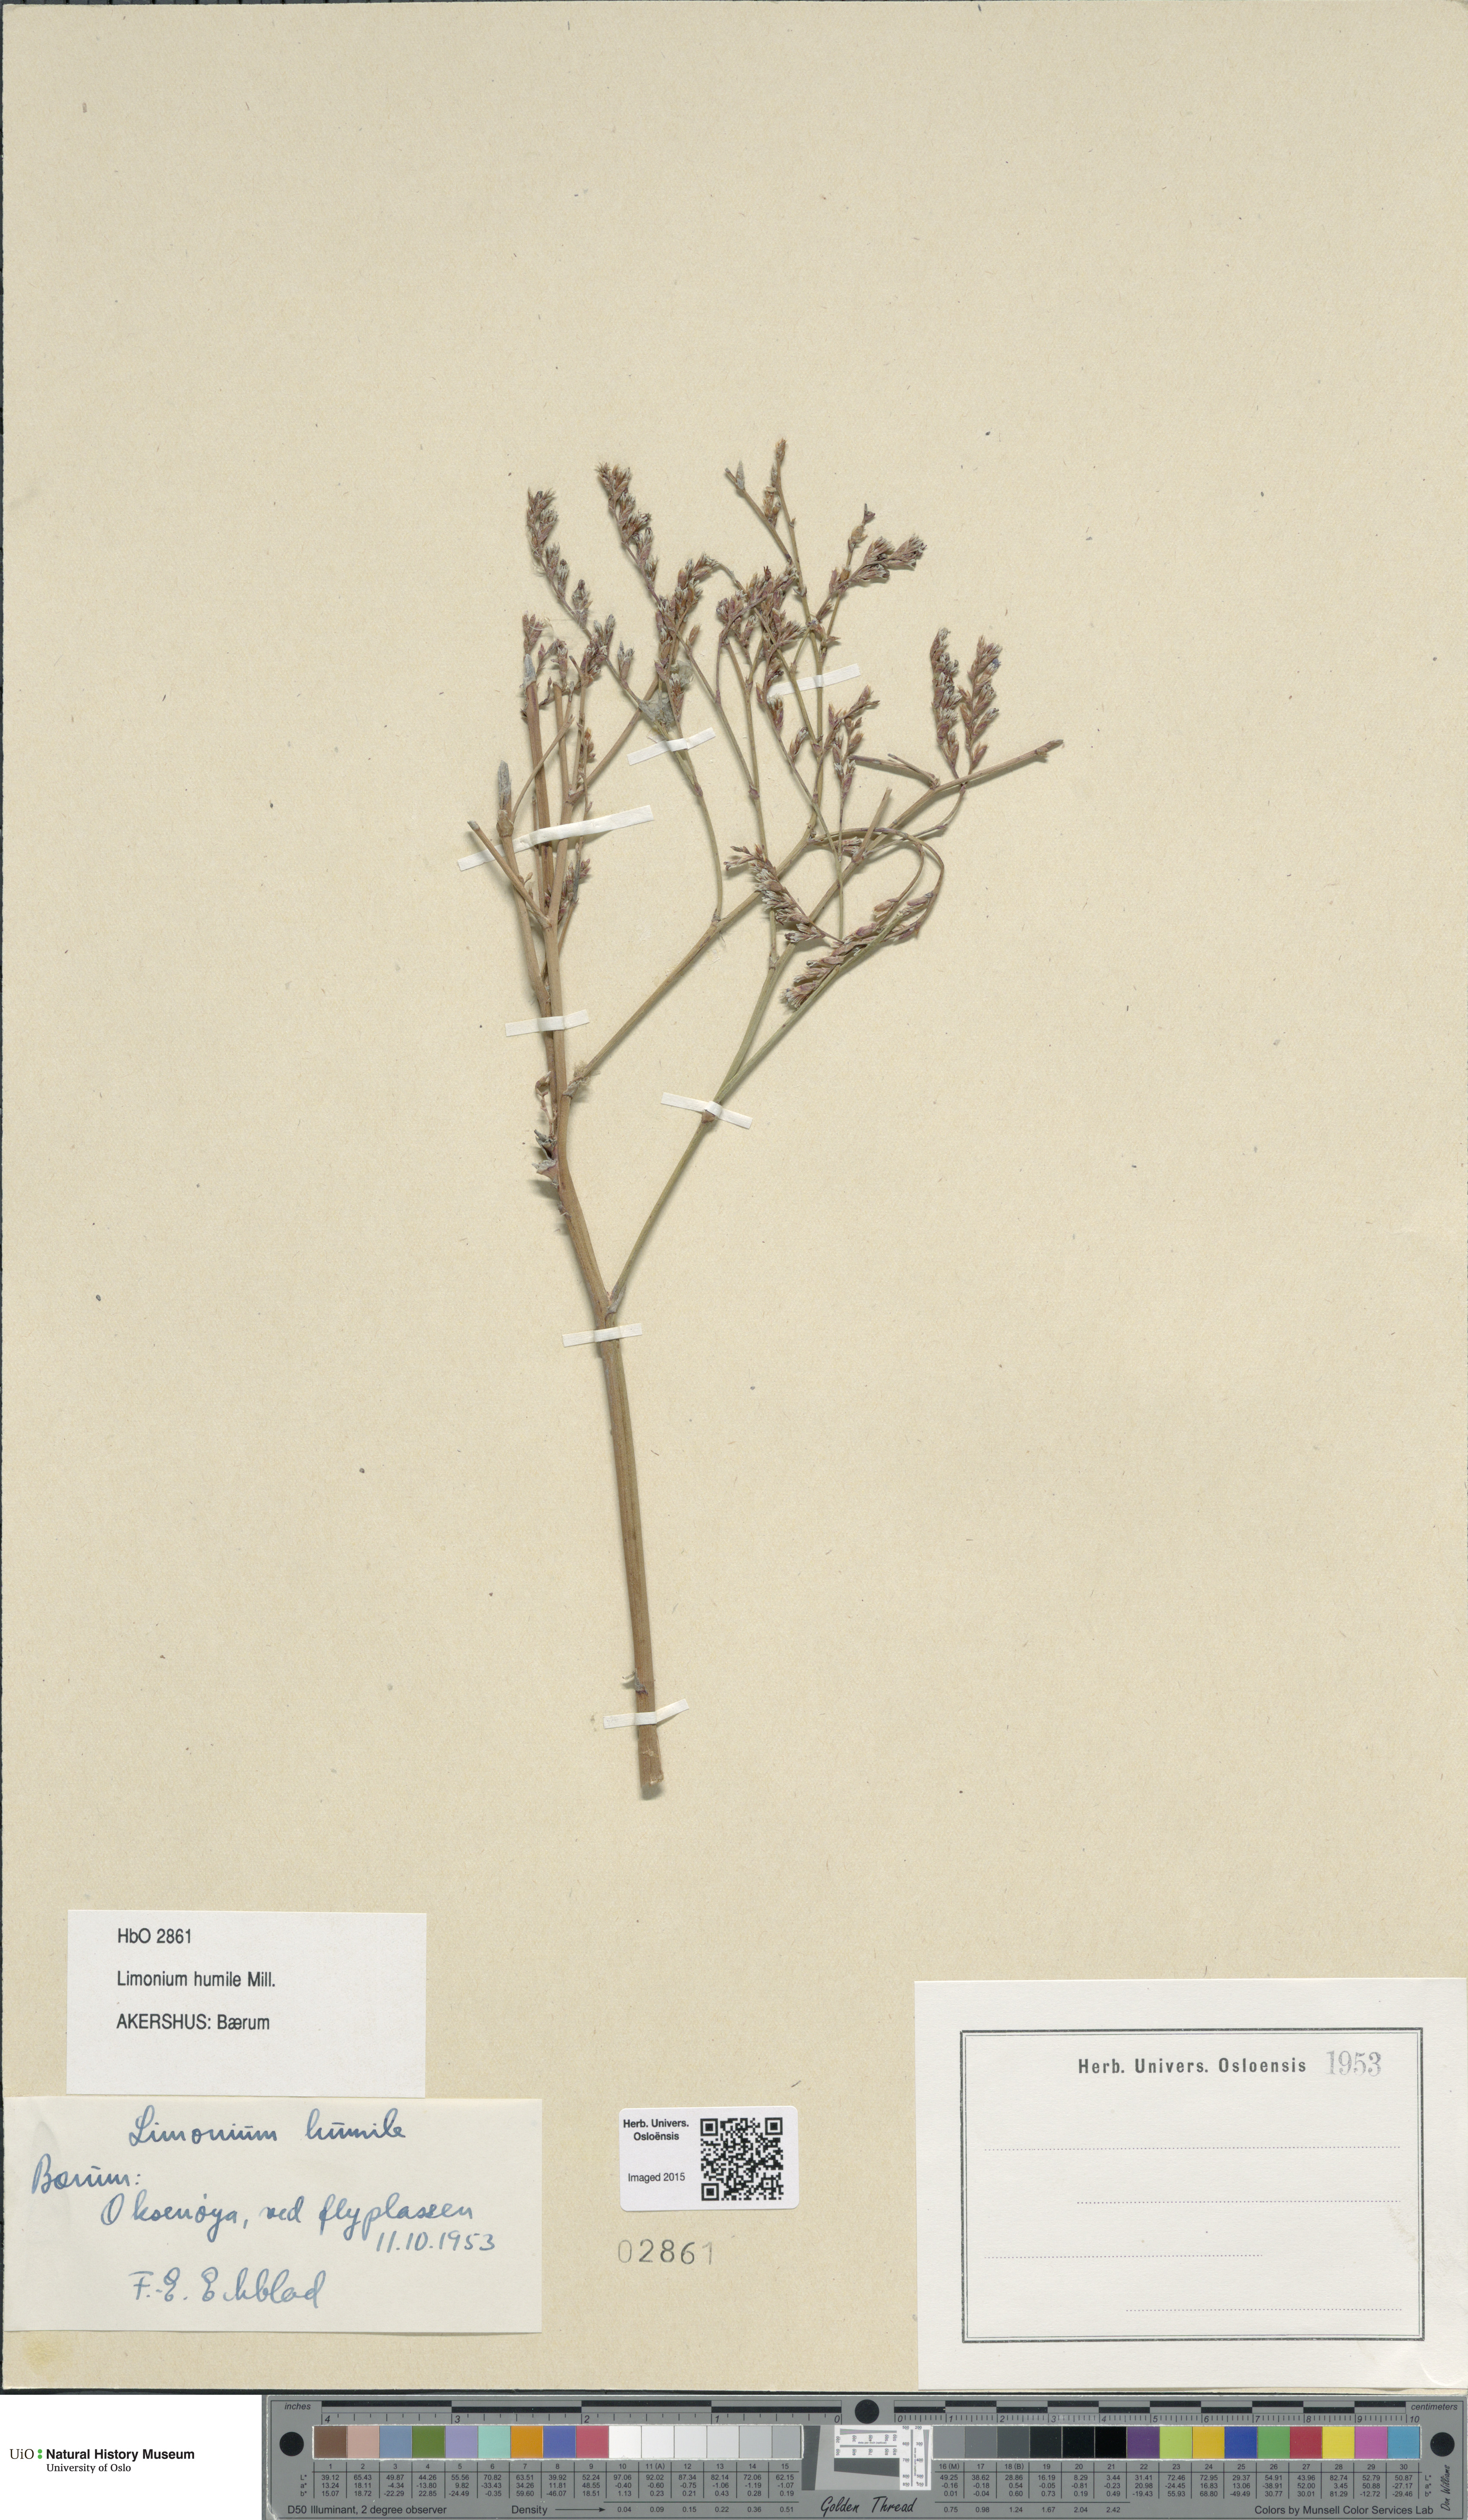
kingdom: Plantae
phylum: Tracheophyta
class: Magnoliopsida
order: Caryophyllales
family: Plumbaginaceae
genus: Limonium
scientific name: Limonium humile
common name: Lax-flowered sea-lavender
